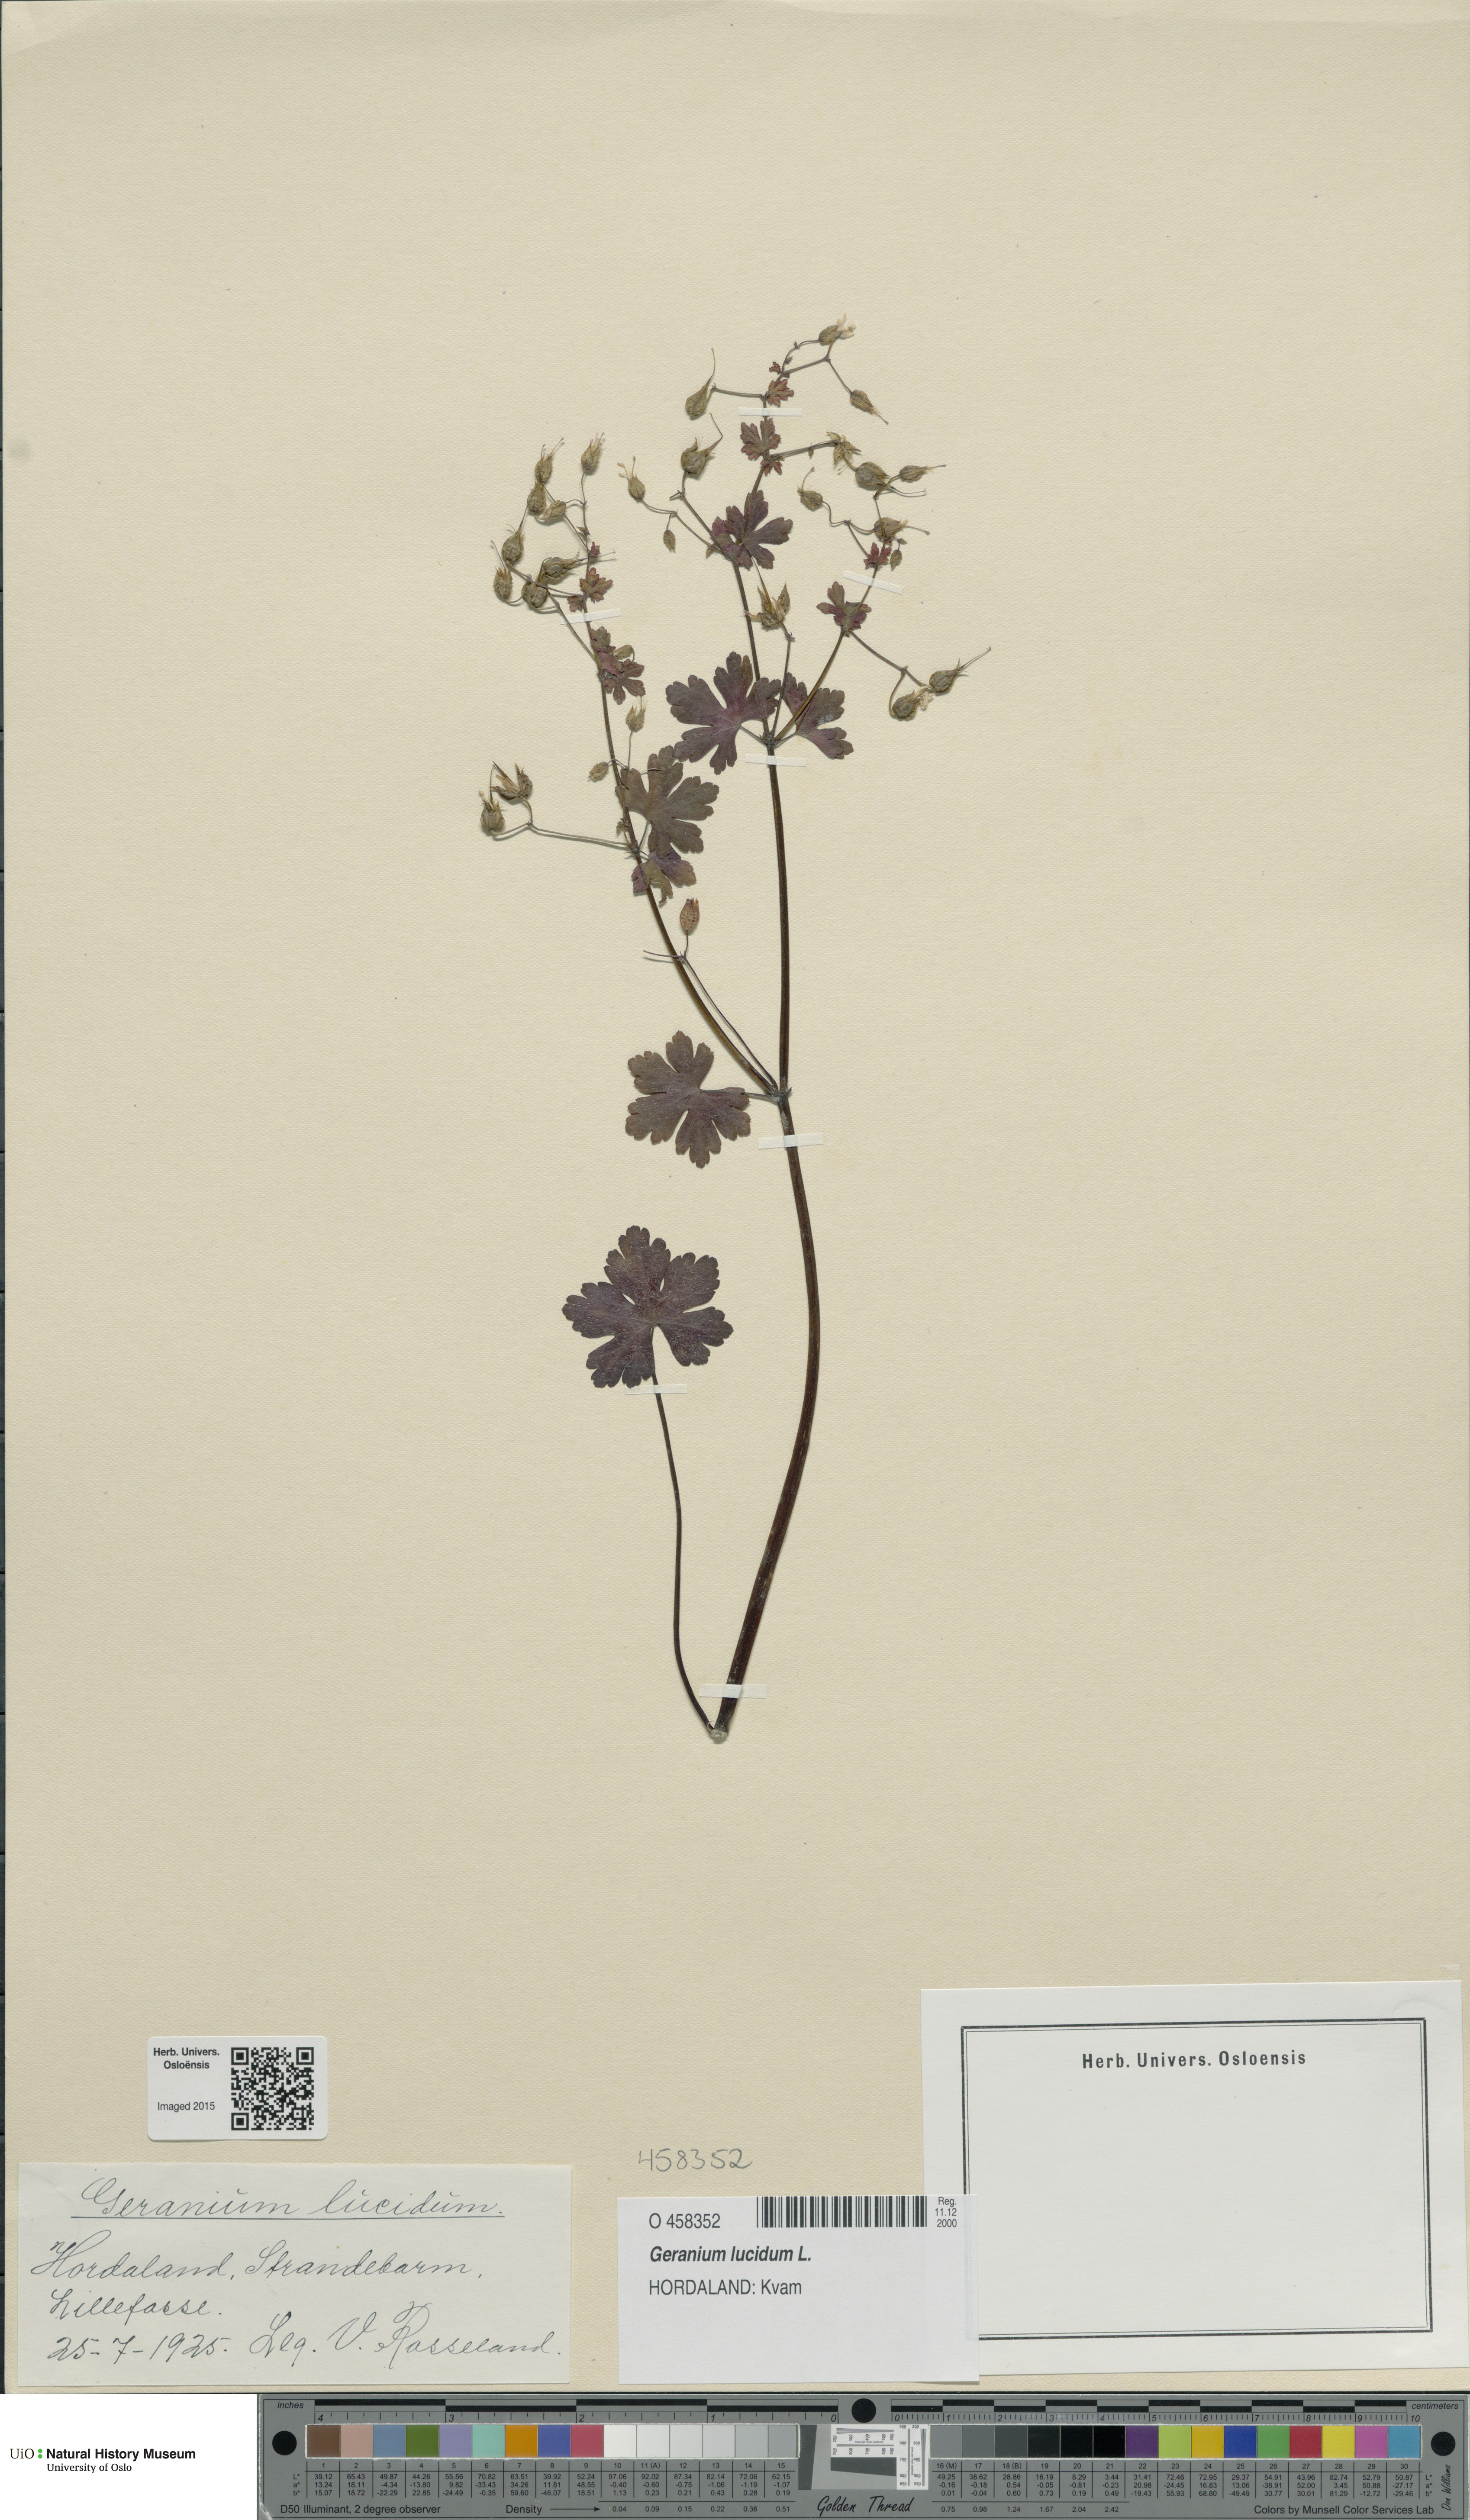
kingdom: Plantae
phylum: Tracheophyta
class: Magnoliopsida
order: Geraniales
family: Geraniaceae
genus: Geranium
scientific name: Geranium lucidum
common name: Shining crane's-bill
